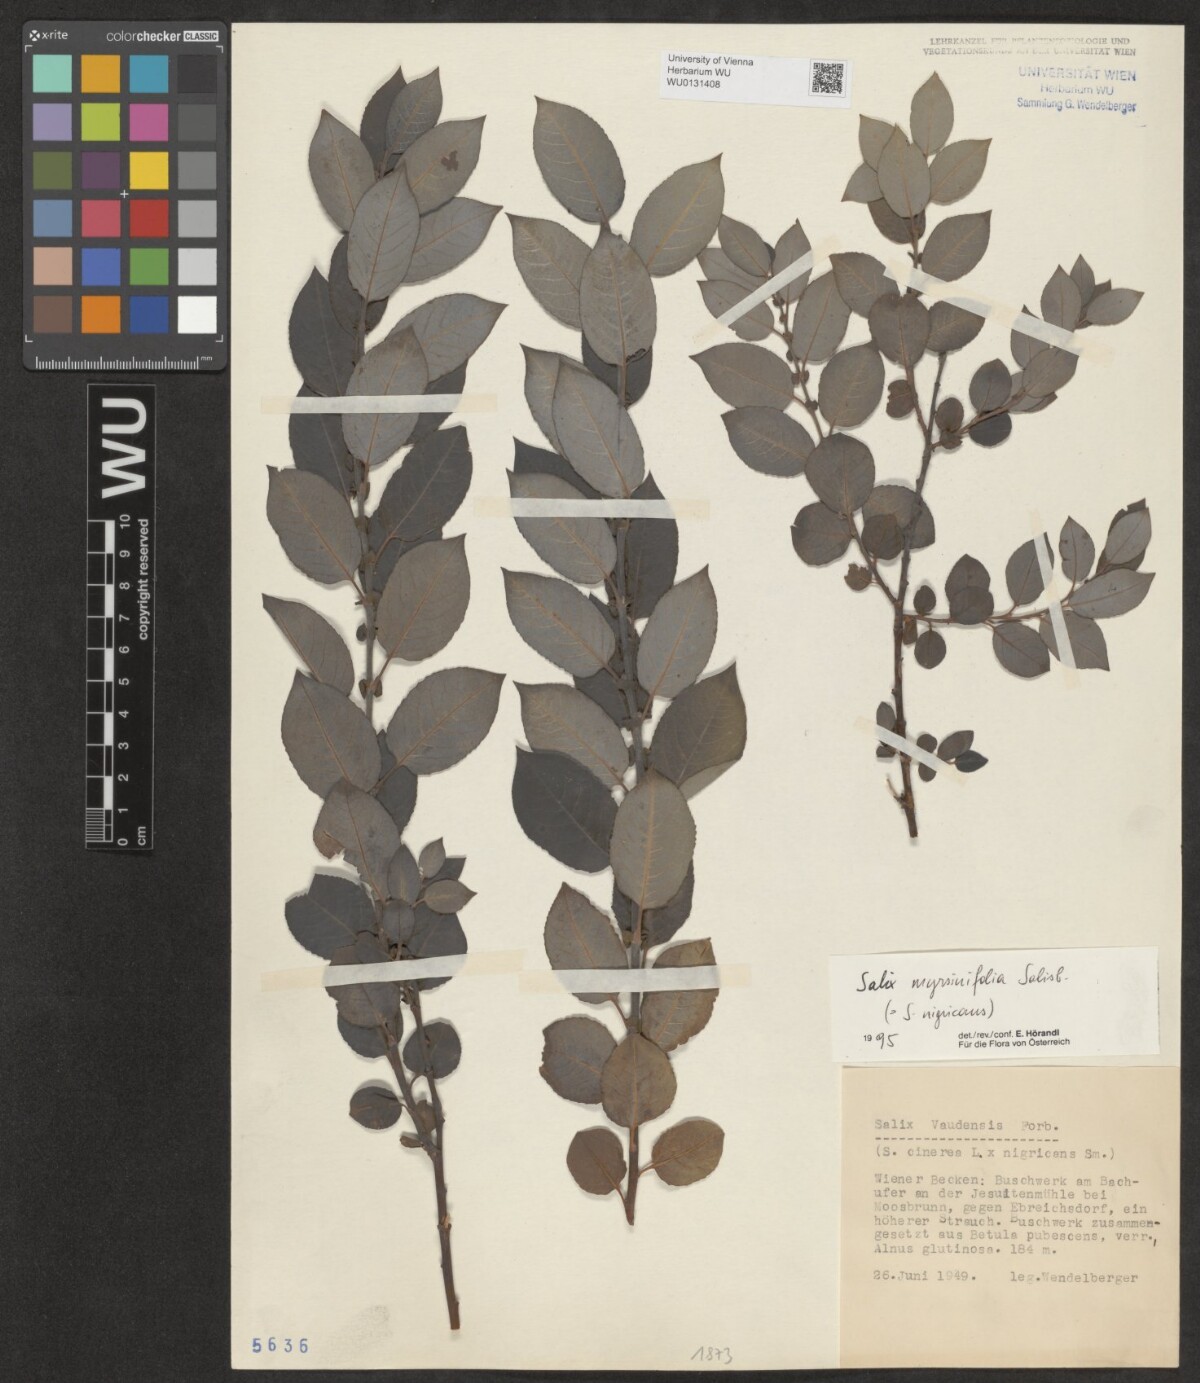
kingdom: Plantae
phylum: Tracheophyta
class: Magnoliopsida
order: Malpighiales
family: Salicaceae
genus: Salix
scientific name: Salix myrsinifolia
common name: Dark-leaved willow
